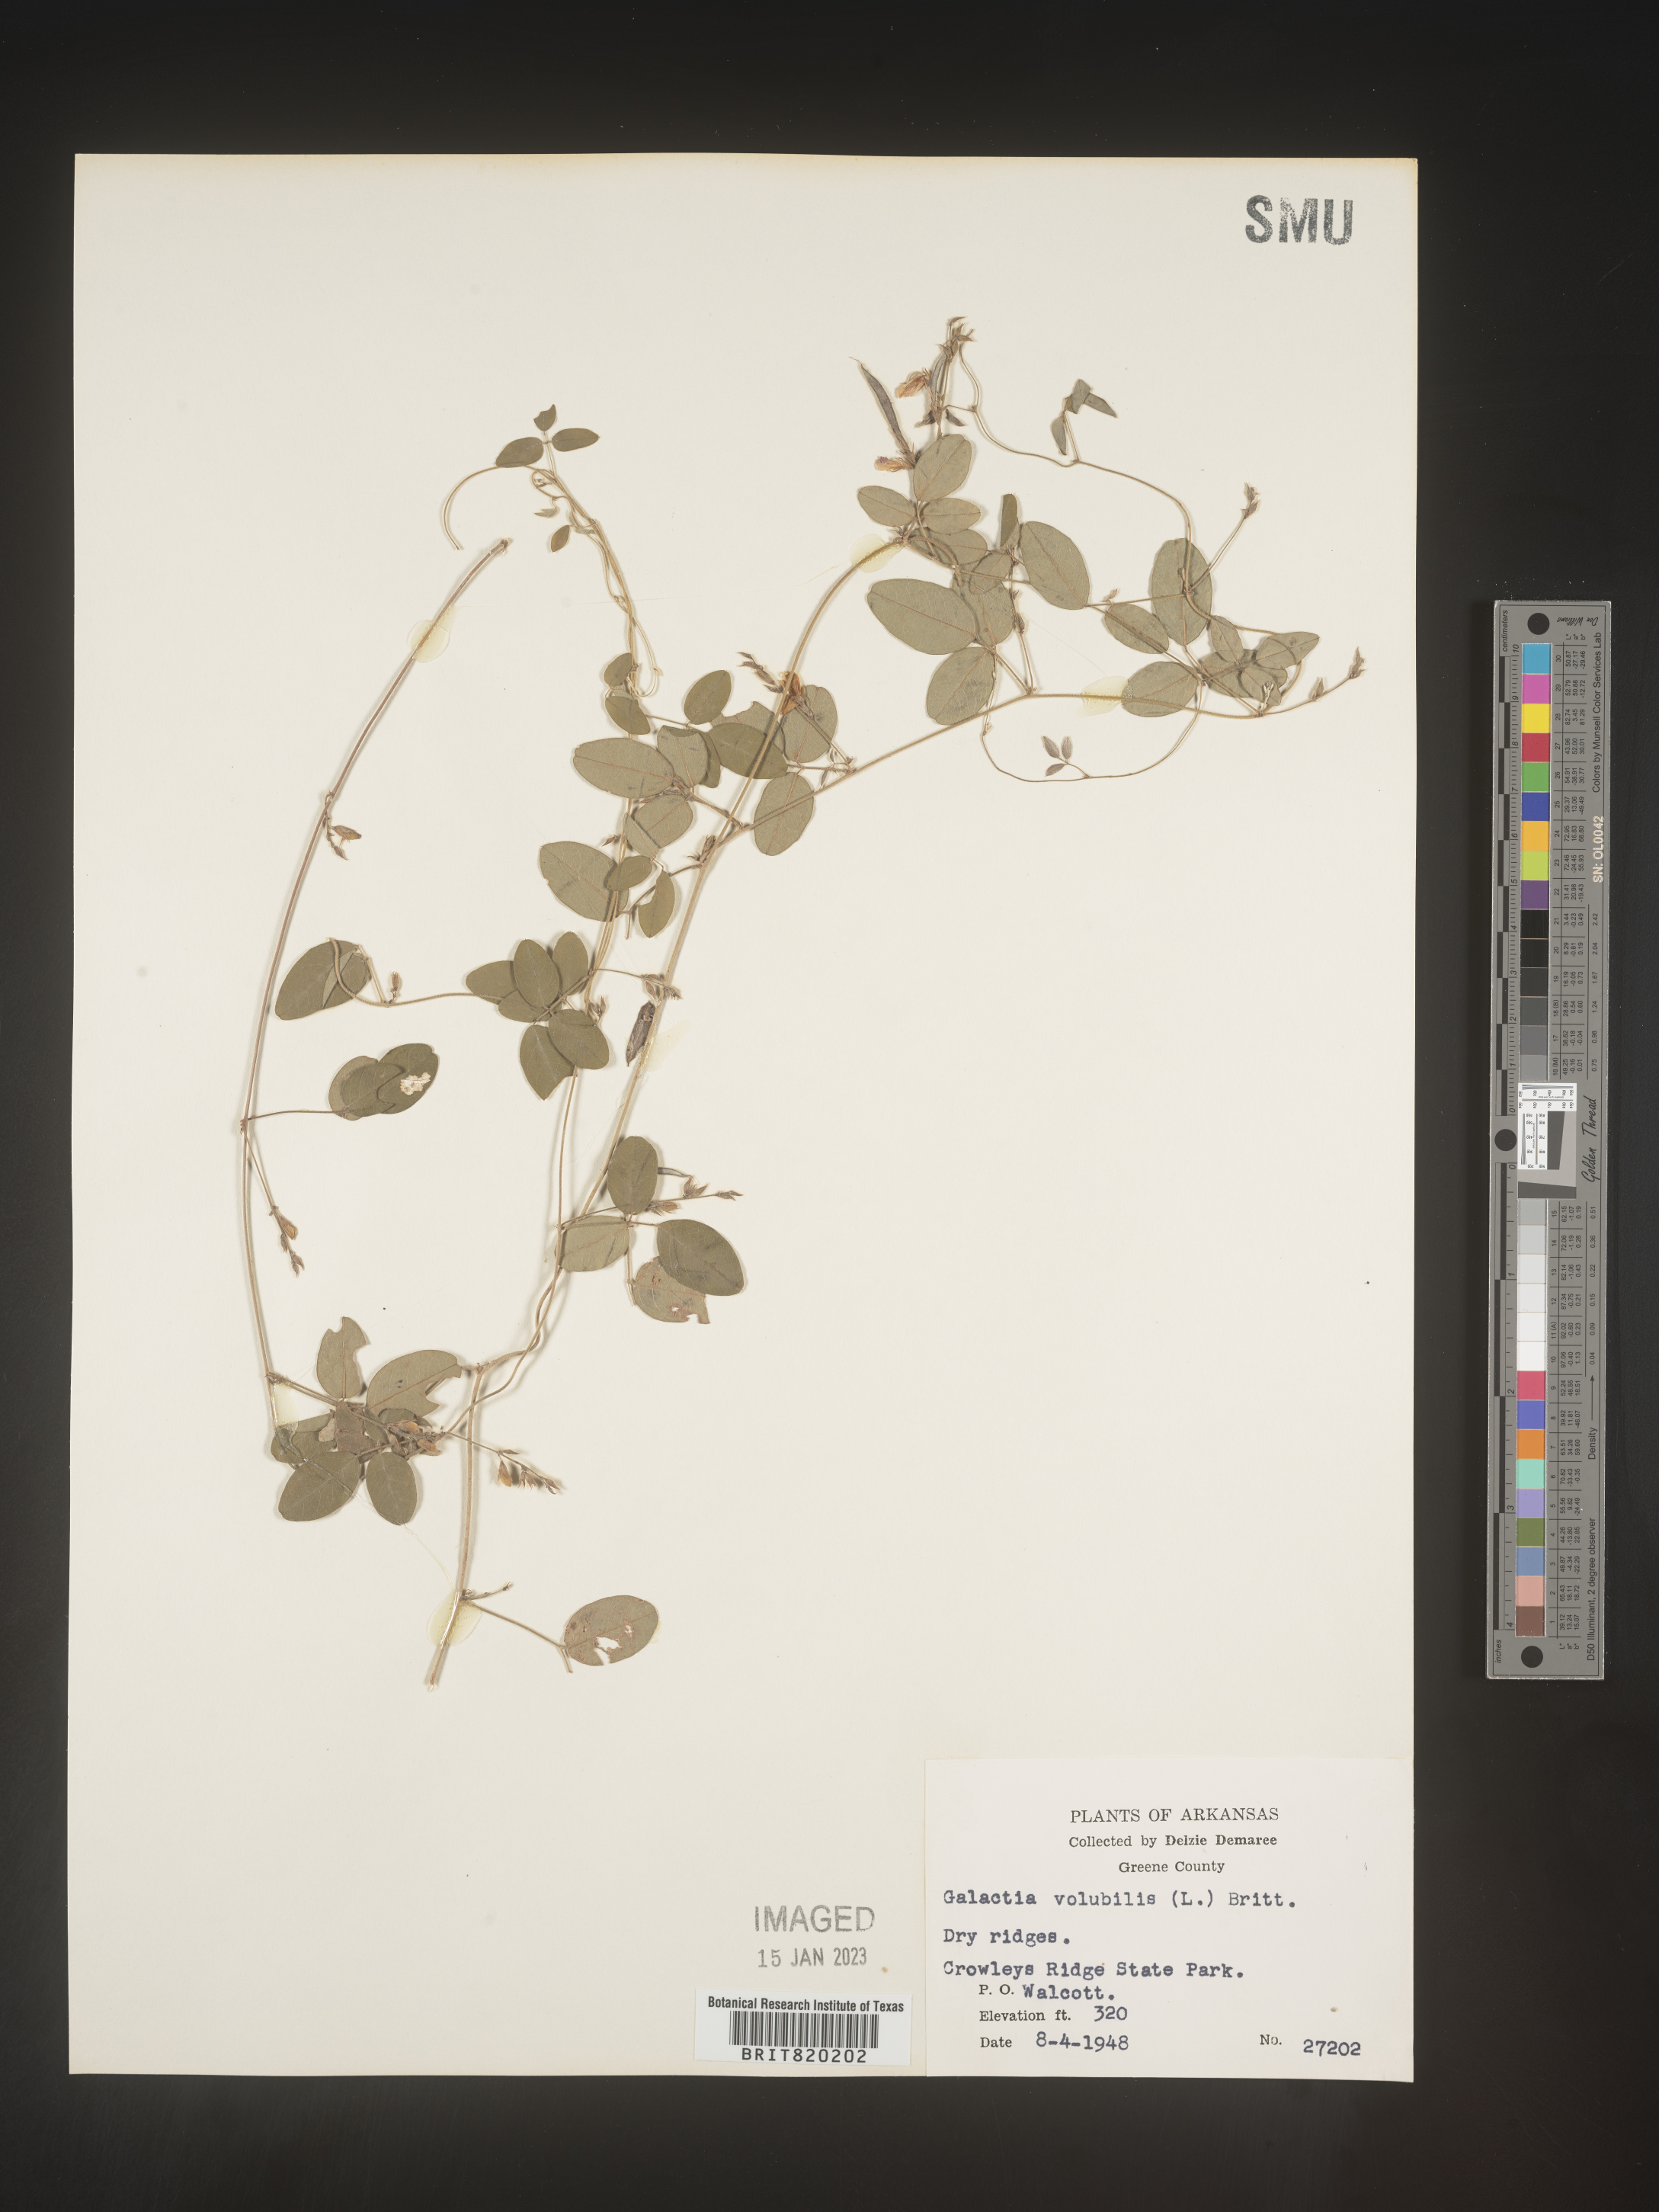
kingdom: Plantae
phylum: Tracheophyta
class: Magnoliopsida
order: Fabales
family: Fabaceae
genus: Galactia
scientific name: Galactia volubilis
